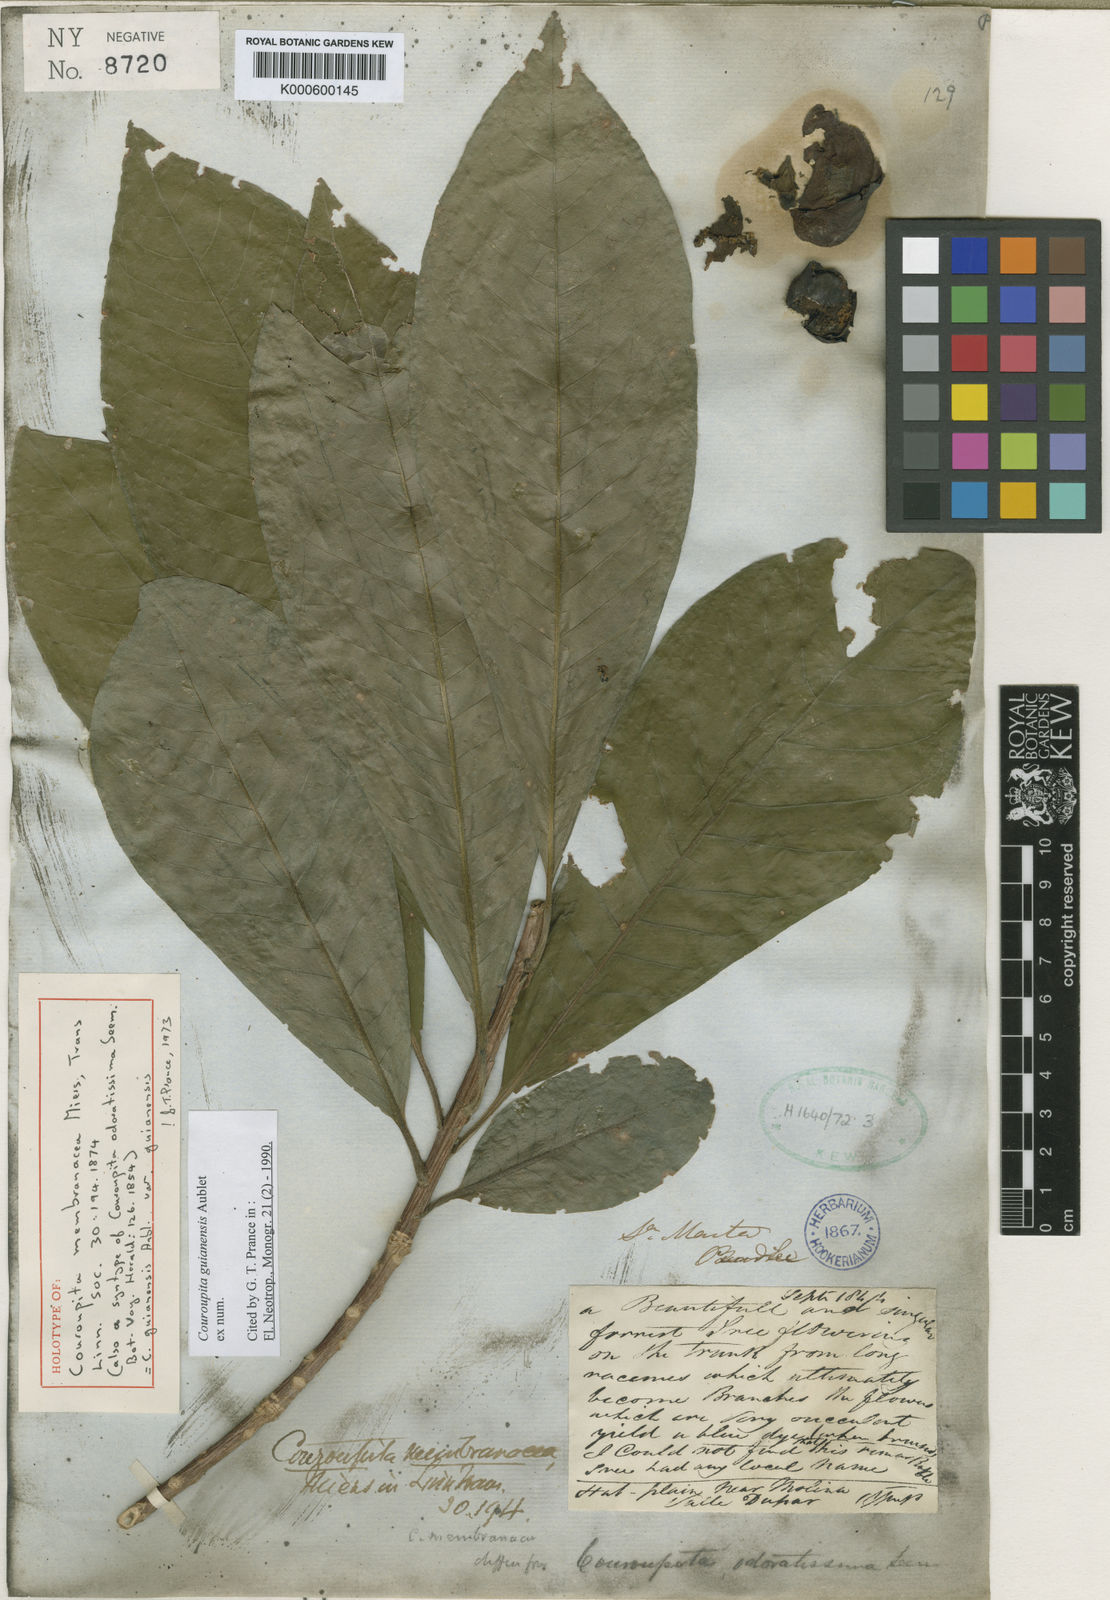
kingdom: Plantae
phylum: Tracheophyta
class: Magnoliopsida
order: Ericales
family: Lecythidaceae
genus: Couroupita
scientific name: Couroupita guianensis
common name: Cannonball tree
